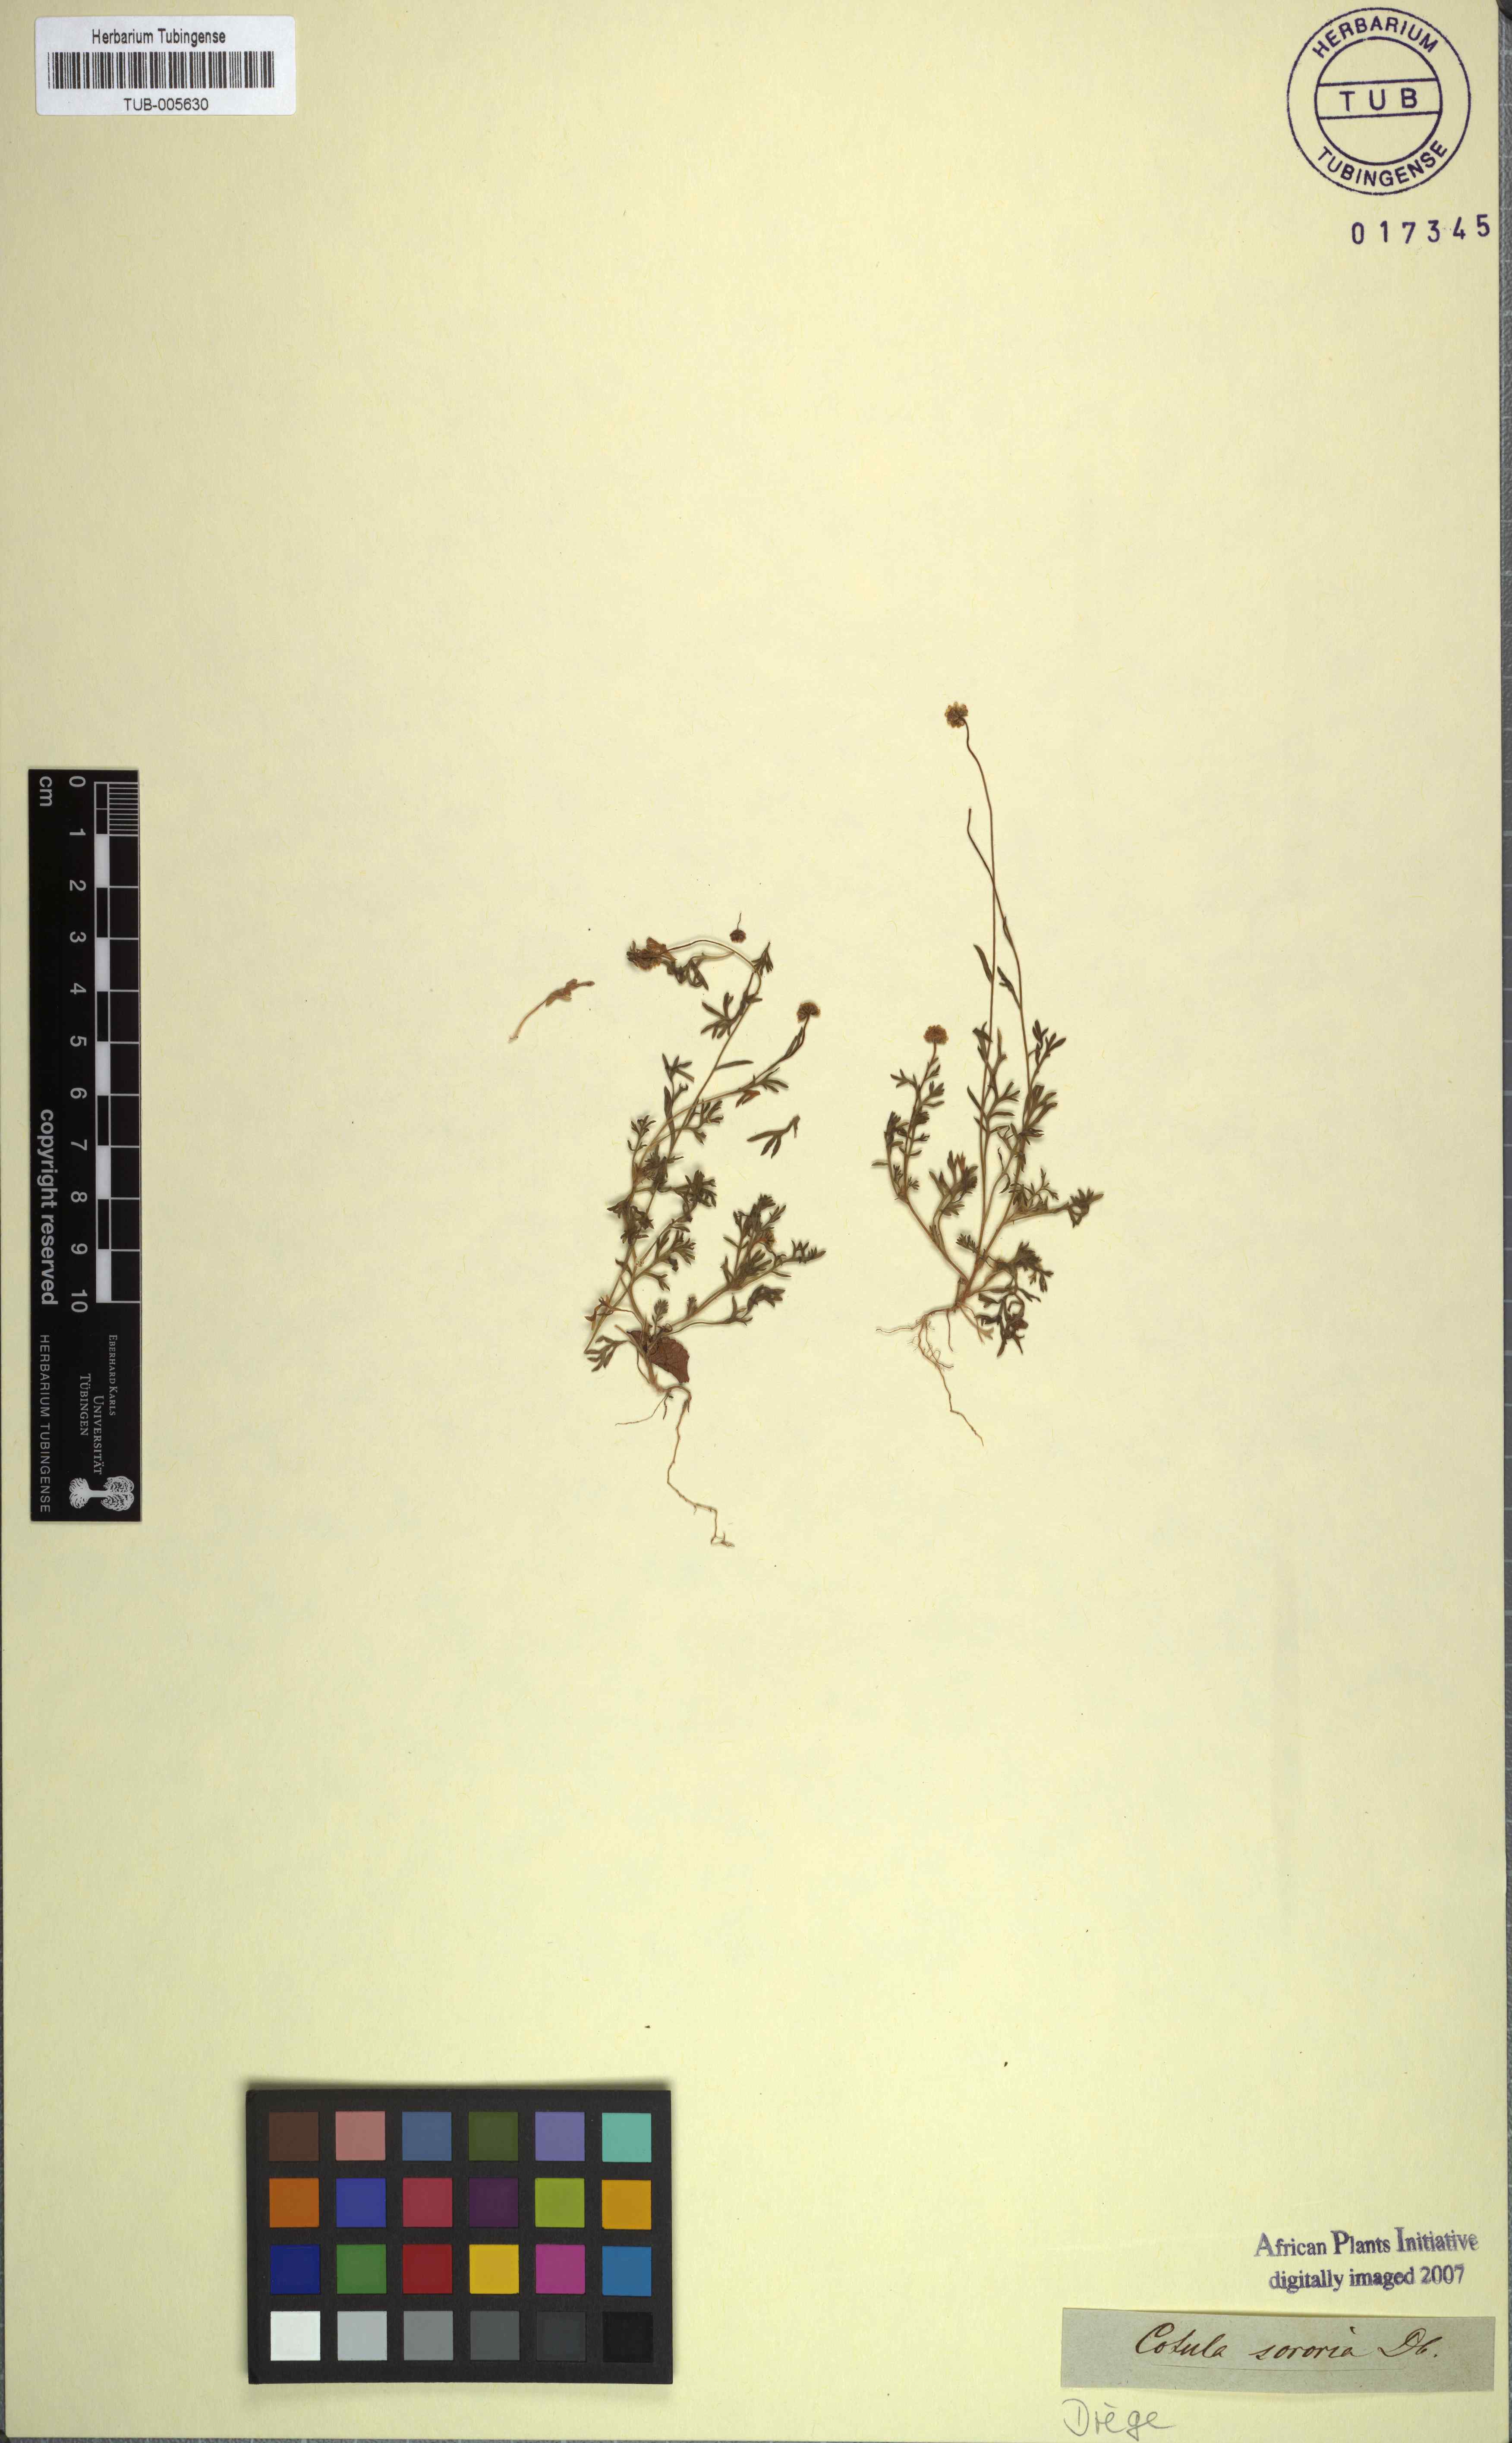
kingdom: Plantae
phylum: Tracheophyta
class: Magnoliopsida
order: Asterales
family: Asteraceae
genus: Cotula
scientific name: Cotula sororia
